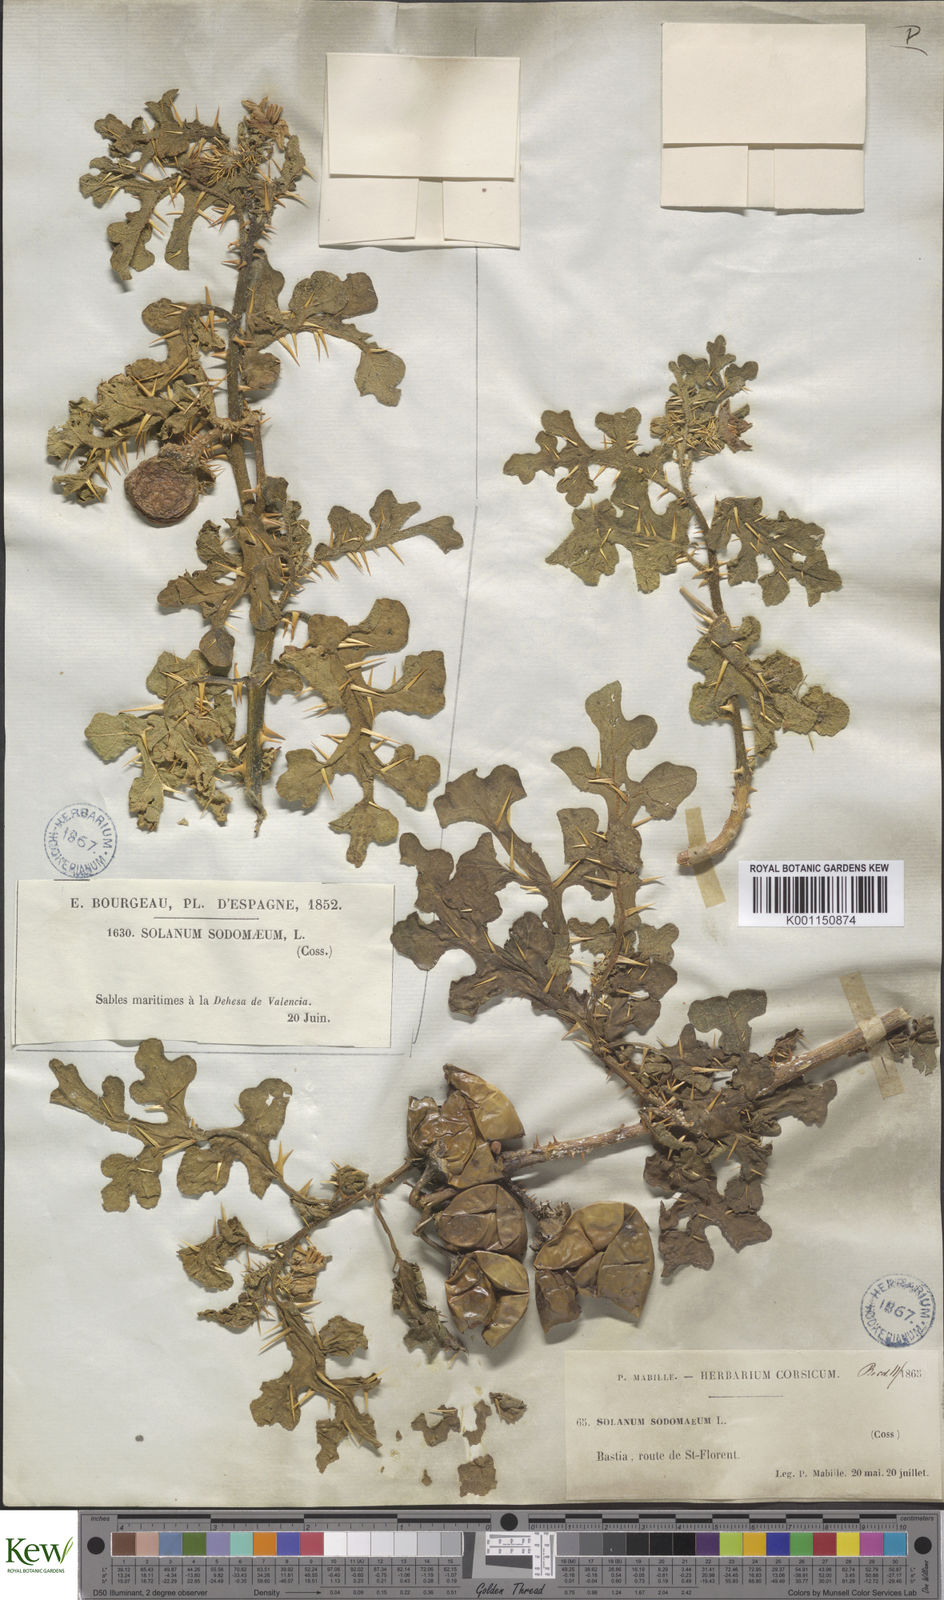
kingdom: Plantae
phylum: Tracheophyta
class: Magnoliopsida
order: Solanales
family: Solanaceae
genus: Solanum
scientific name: Solanum anguivi
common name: Forest bitterberry
